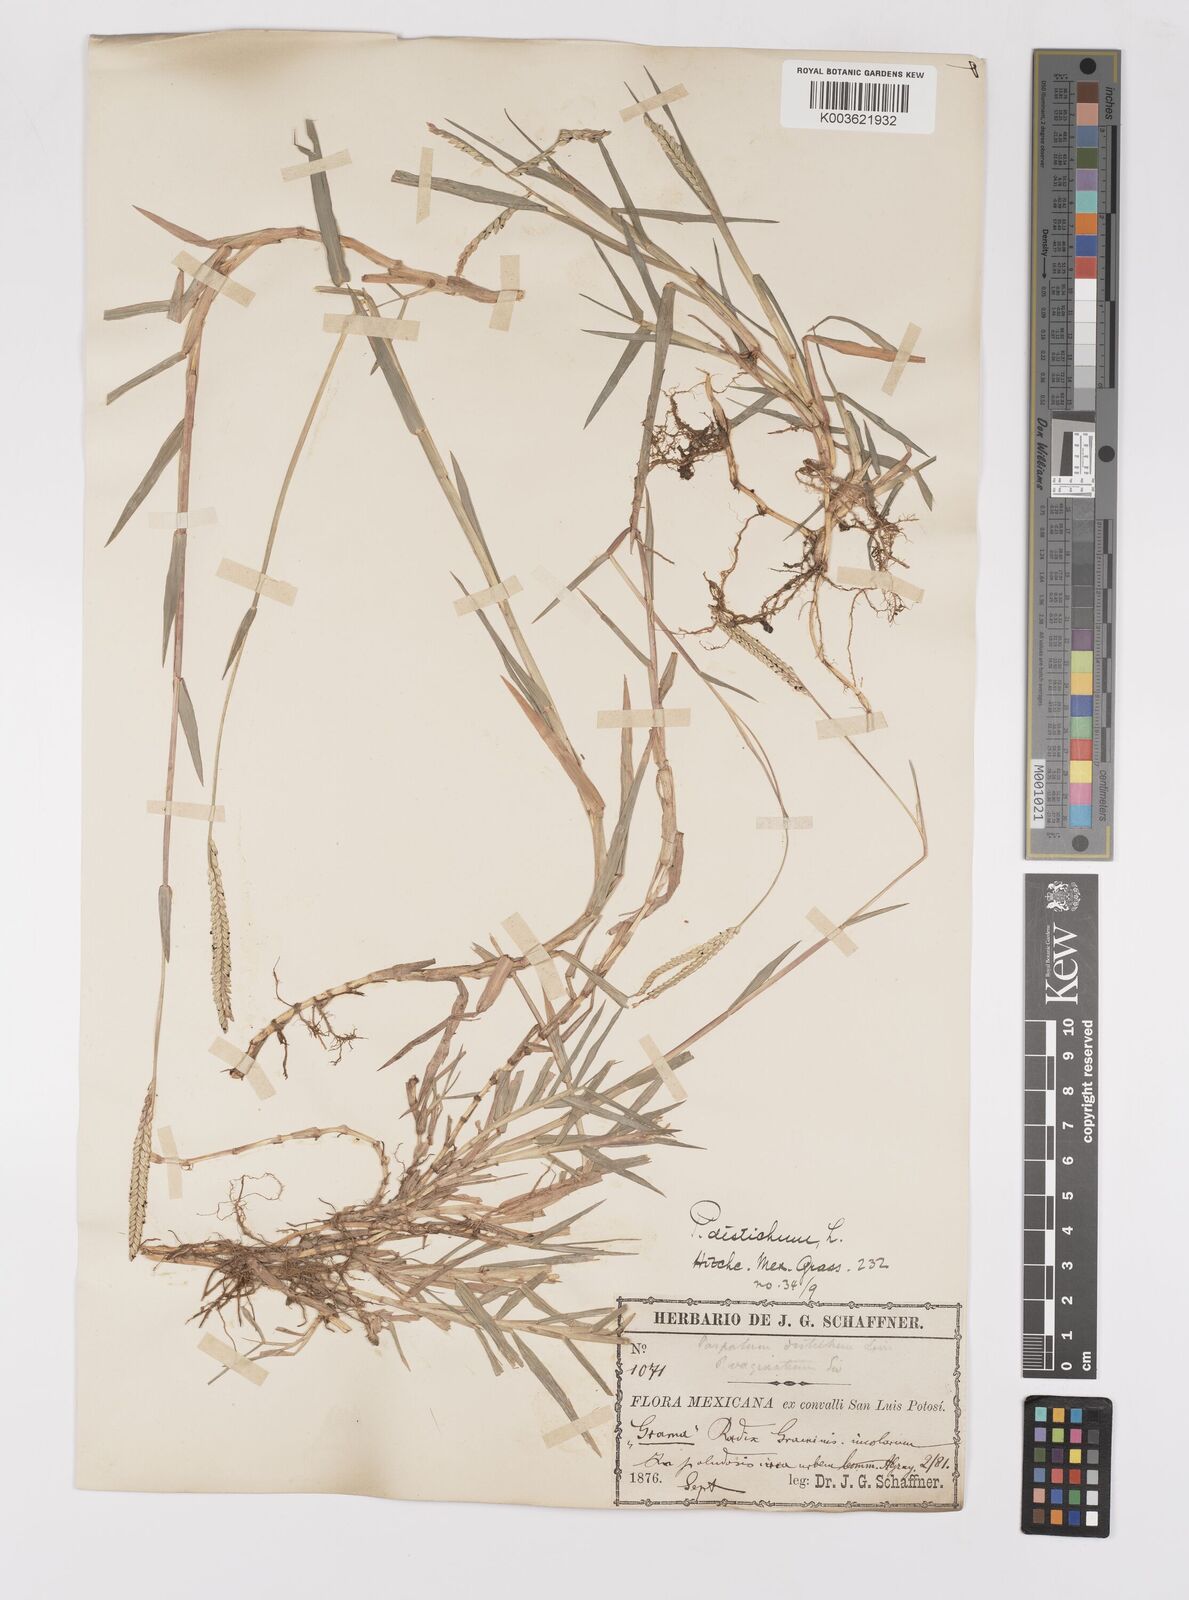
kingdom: Plantae
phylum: Tracheophyta
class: Liliopsida
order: Poales
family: Poaceae
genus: Paspalum
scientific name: Paspalum distichum
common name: Knotgrass
